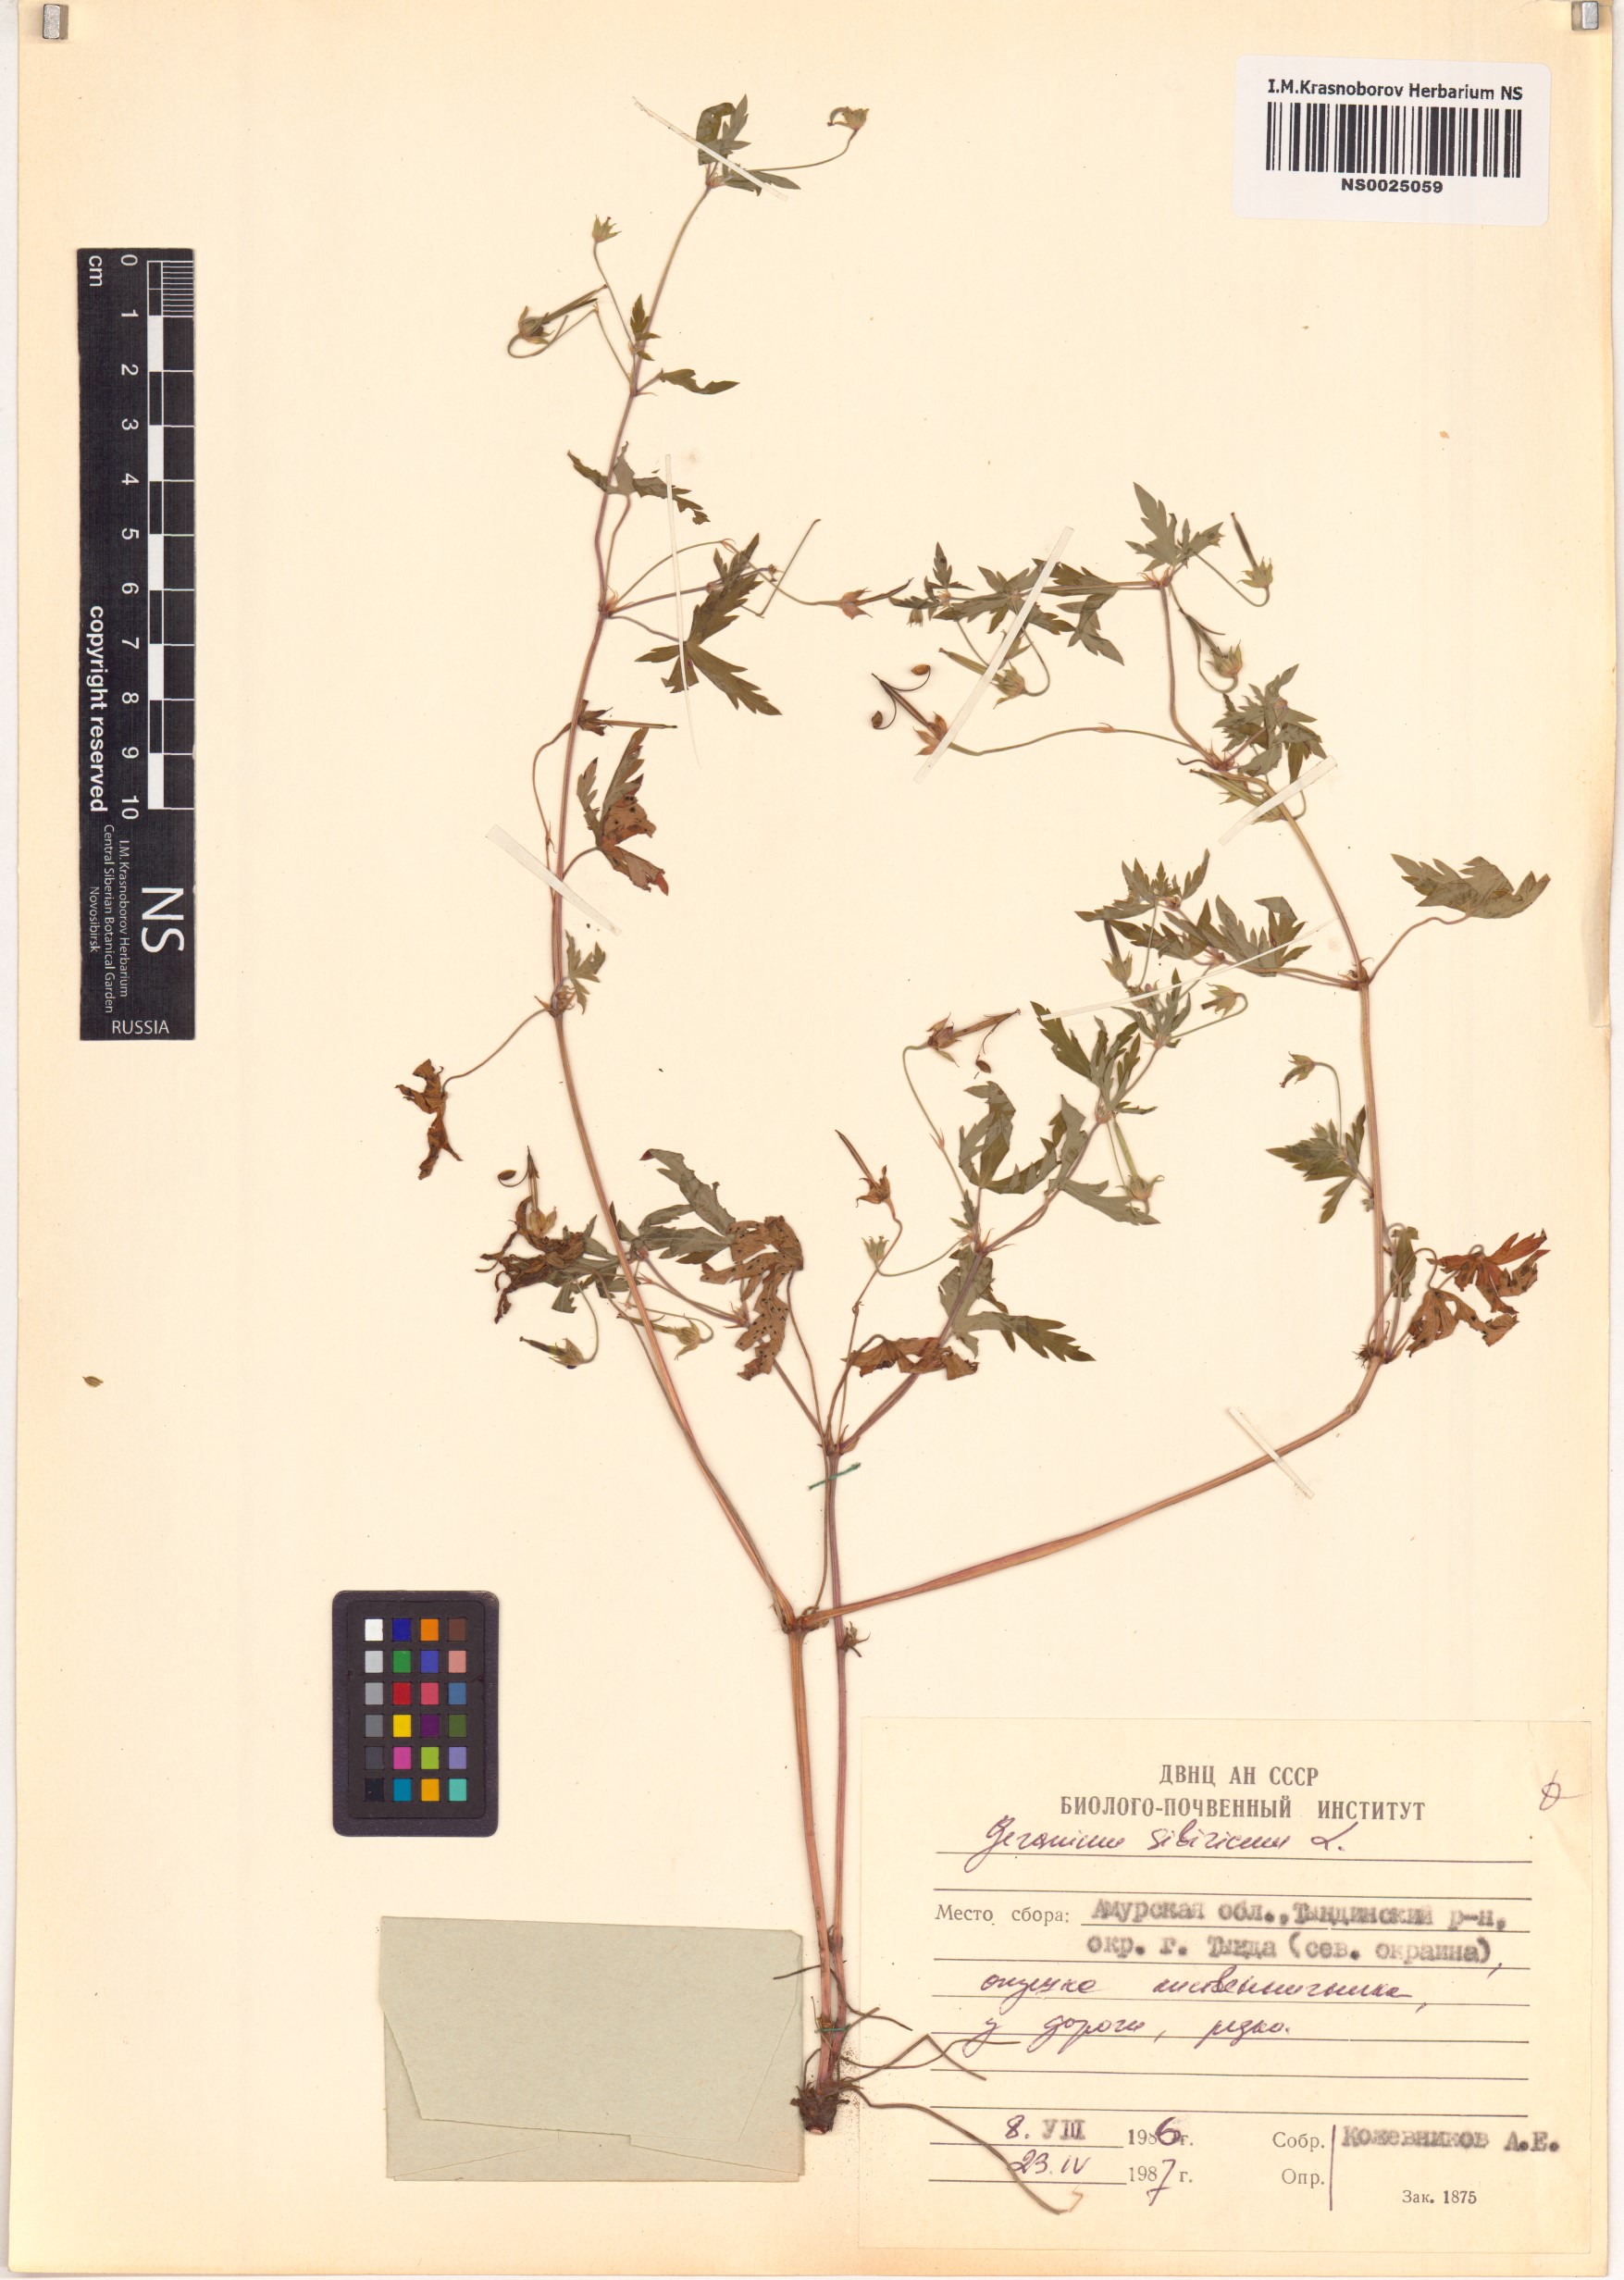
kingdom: Plantae
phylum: Tracheophyta
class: Magnoliopsida
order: Geraniales
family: Geraniaceae
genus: Geranium
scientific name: Geranium sibiricum
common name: Siberian crane's-bill
